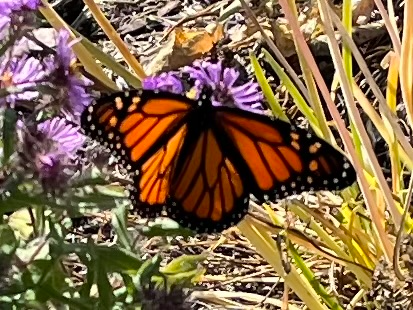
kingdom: Animalia
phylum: Arthropoda
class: Insecta
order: Lepidoptera
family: Nymphalidae
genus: Danaus
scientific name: Danaus plexippus
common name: Monarch
